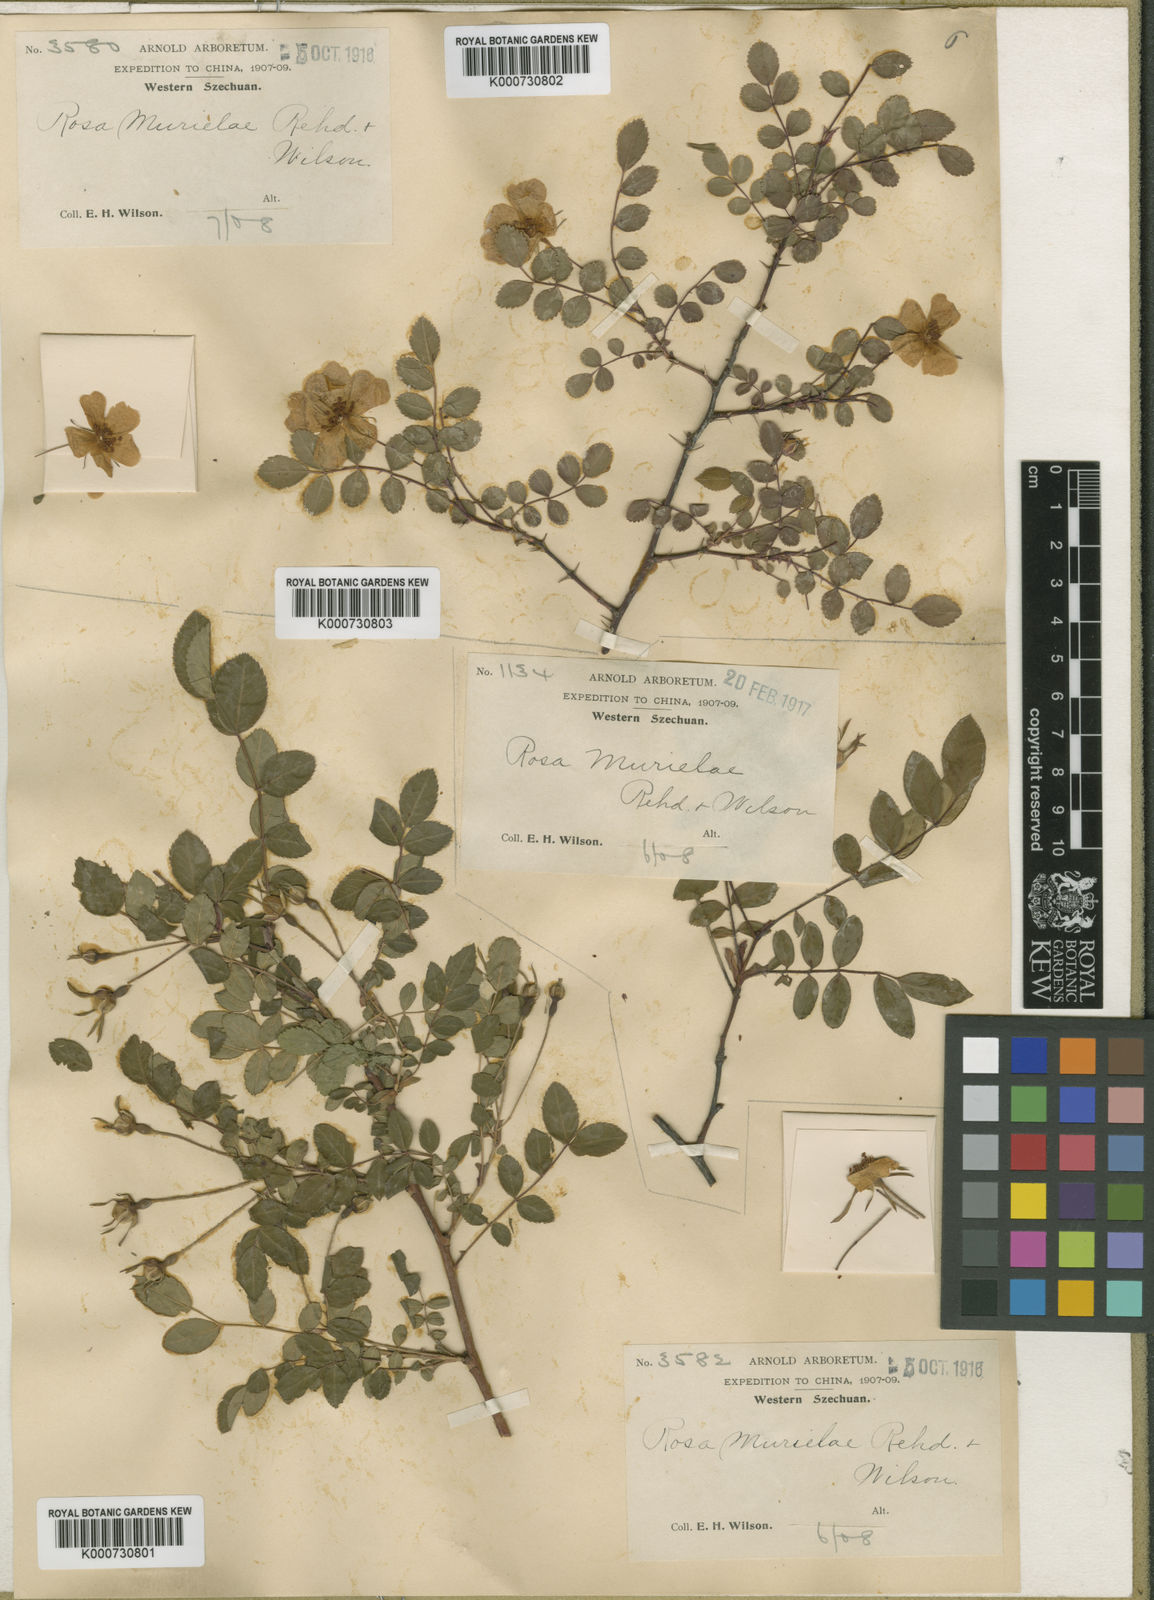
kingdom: Plantae
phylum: Tracheophyta
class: Magnoliopsida
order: Rosales
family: Rosaceae
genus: Rosa
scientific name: Rosa murielae
